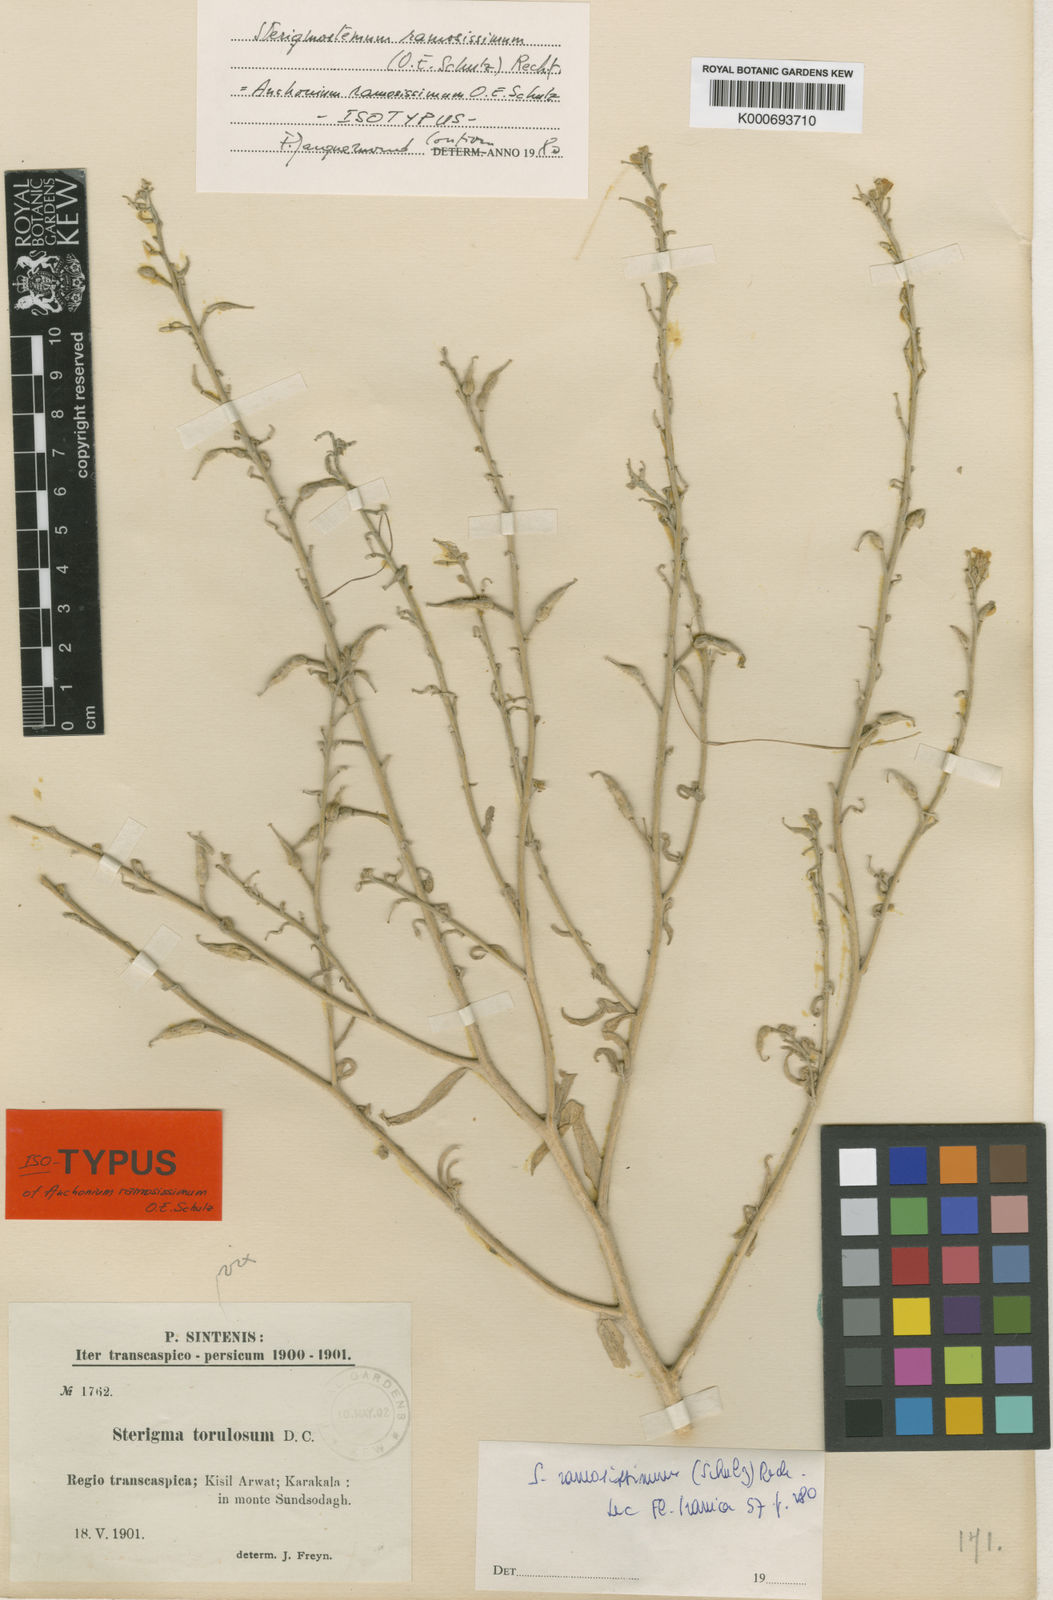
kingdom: Plantae
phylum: Tracheophyta
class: Magnoliopsida
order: Brassicales
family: Brassicaceae
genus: Sterigmostemum
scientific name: Sterigmostemum ramosissimum
